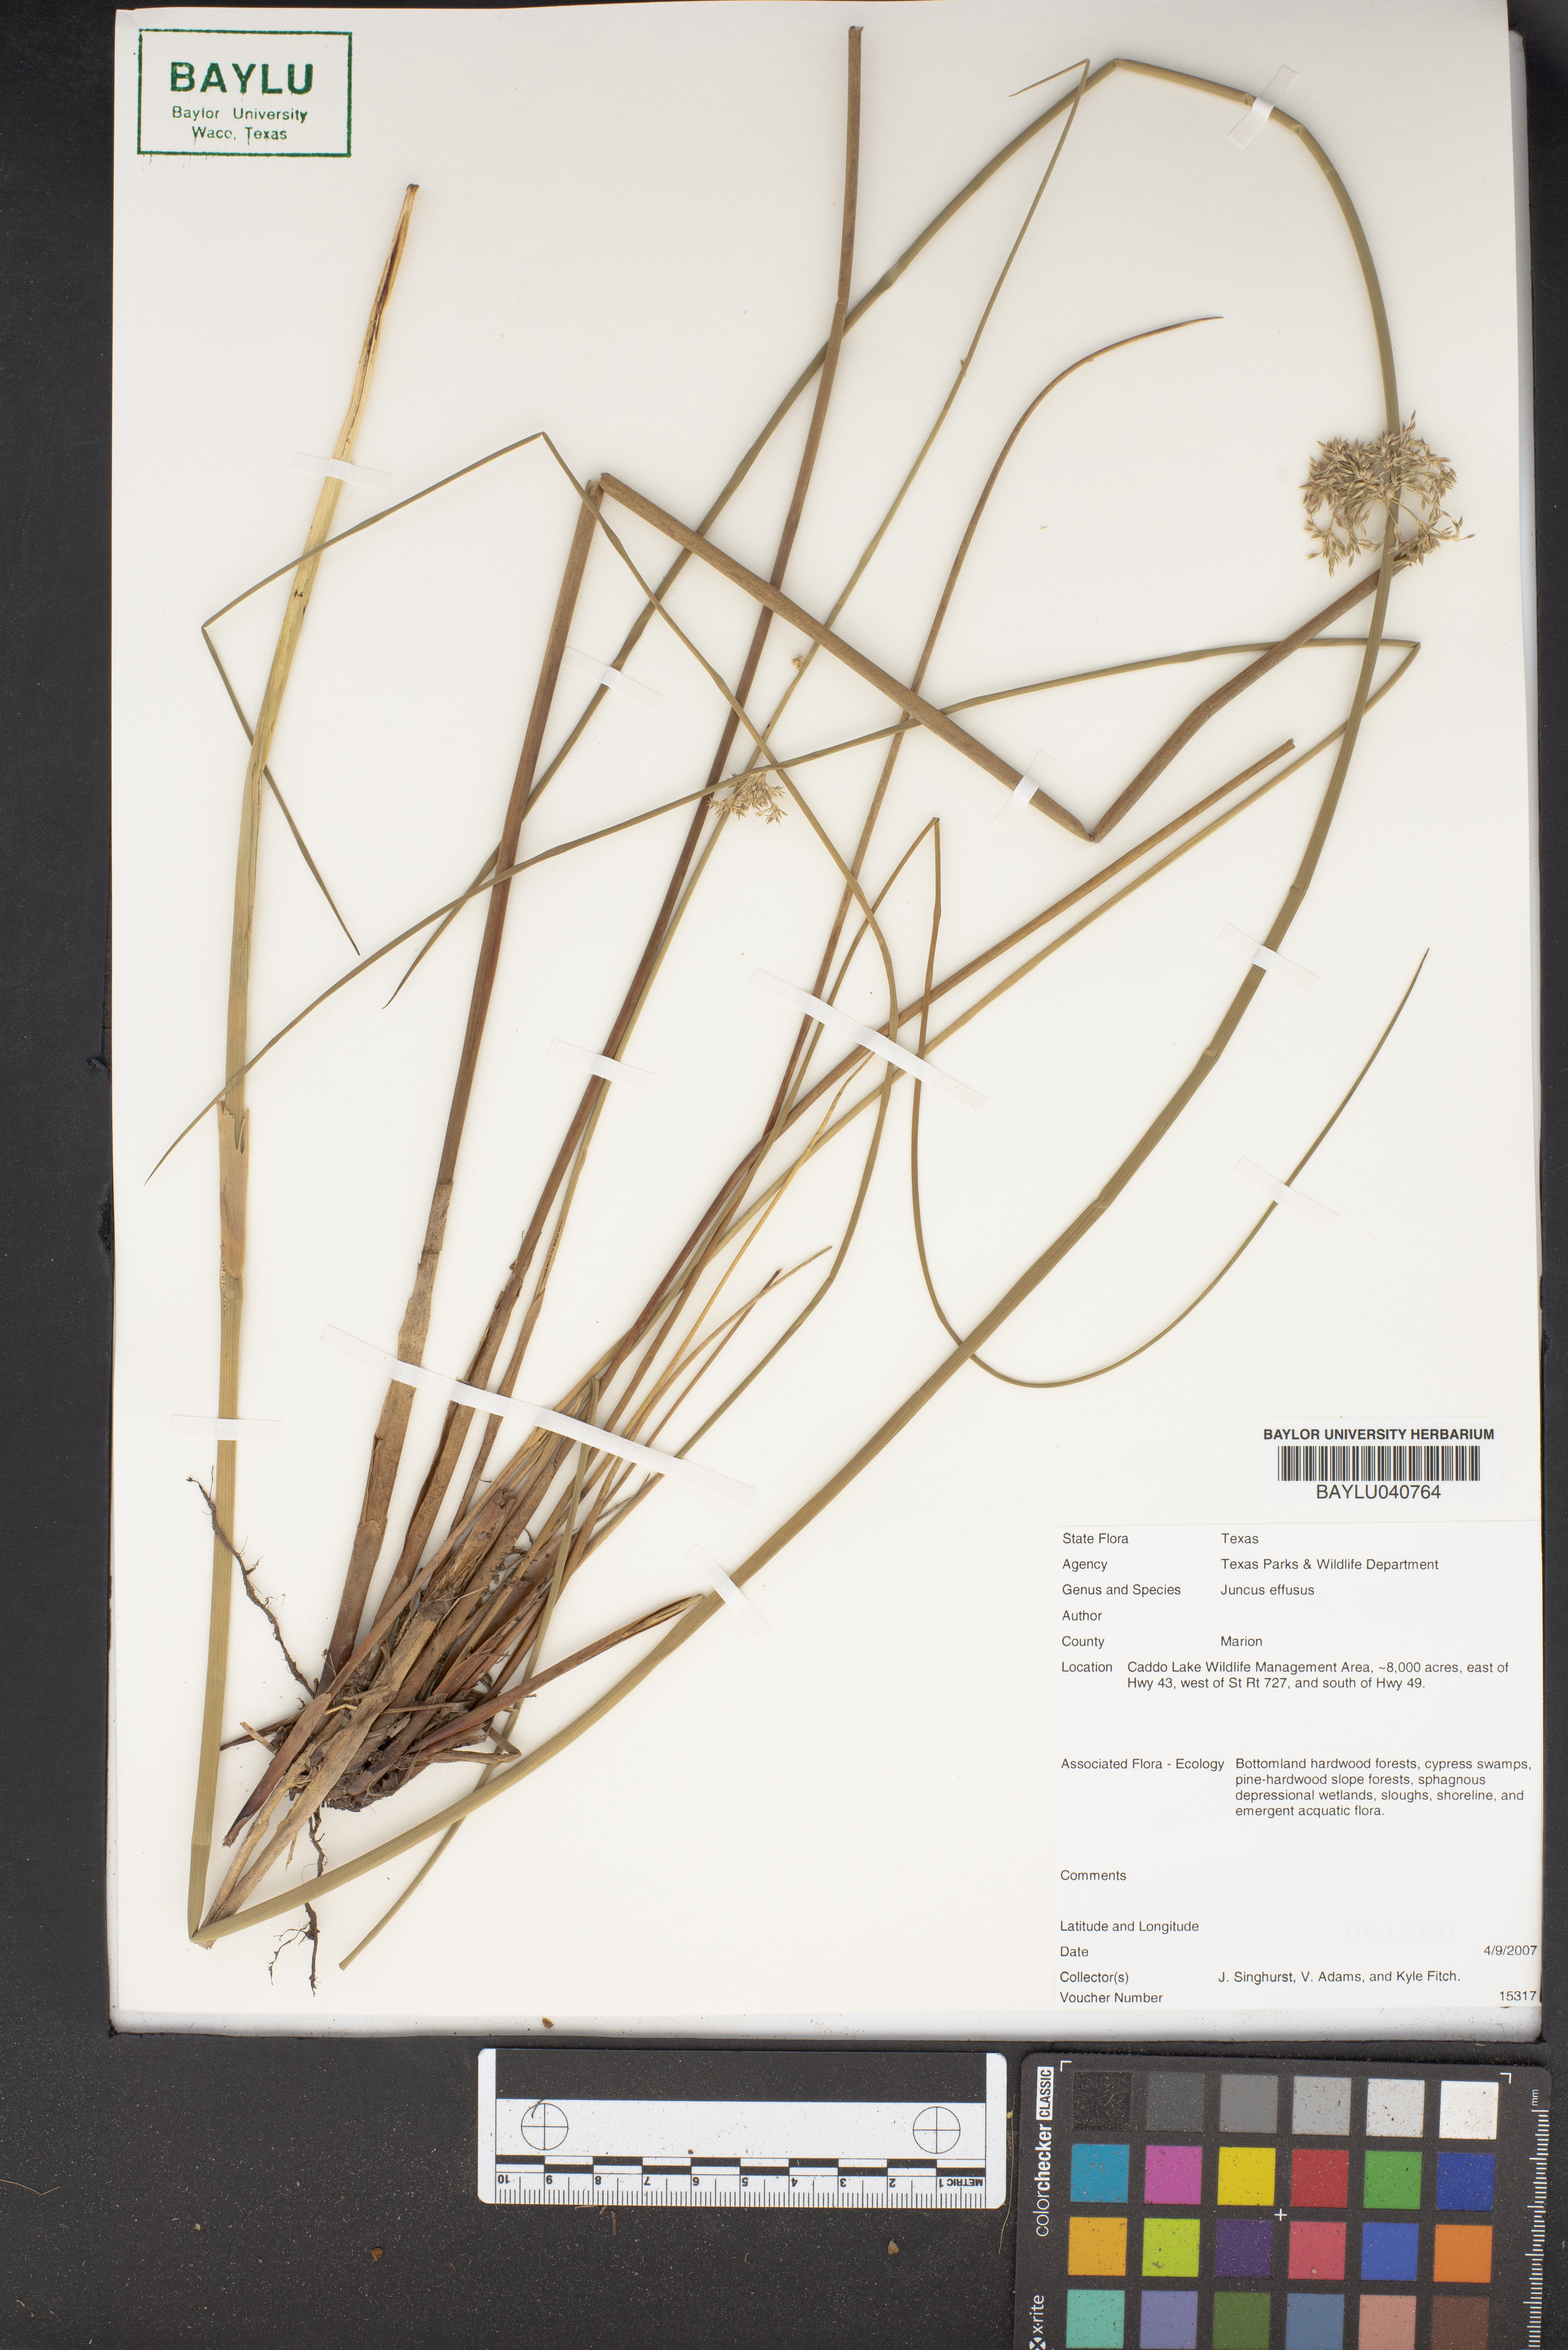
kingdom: Plantae
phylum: Tracheophyta
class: Liliopsida
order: Poales
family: Juncaceae
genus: Juncus
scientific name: Juncus effusus
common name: Soft rush
